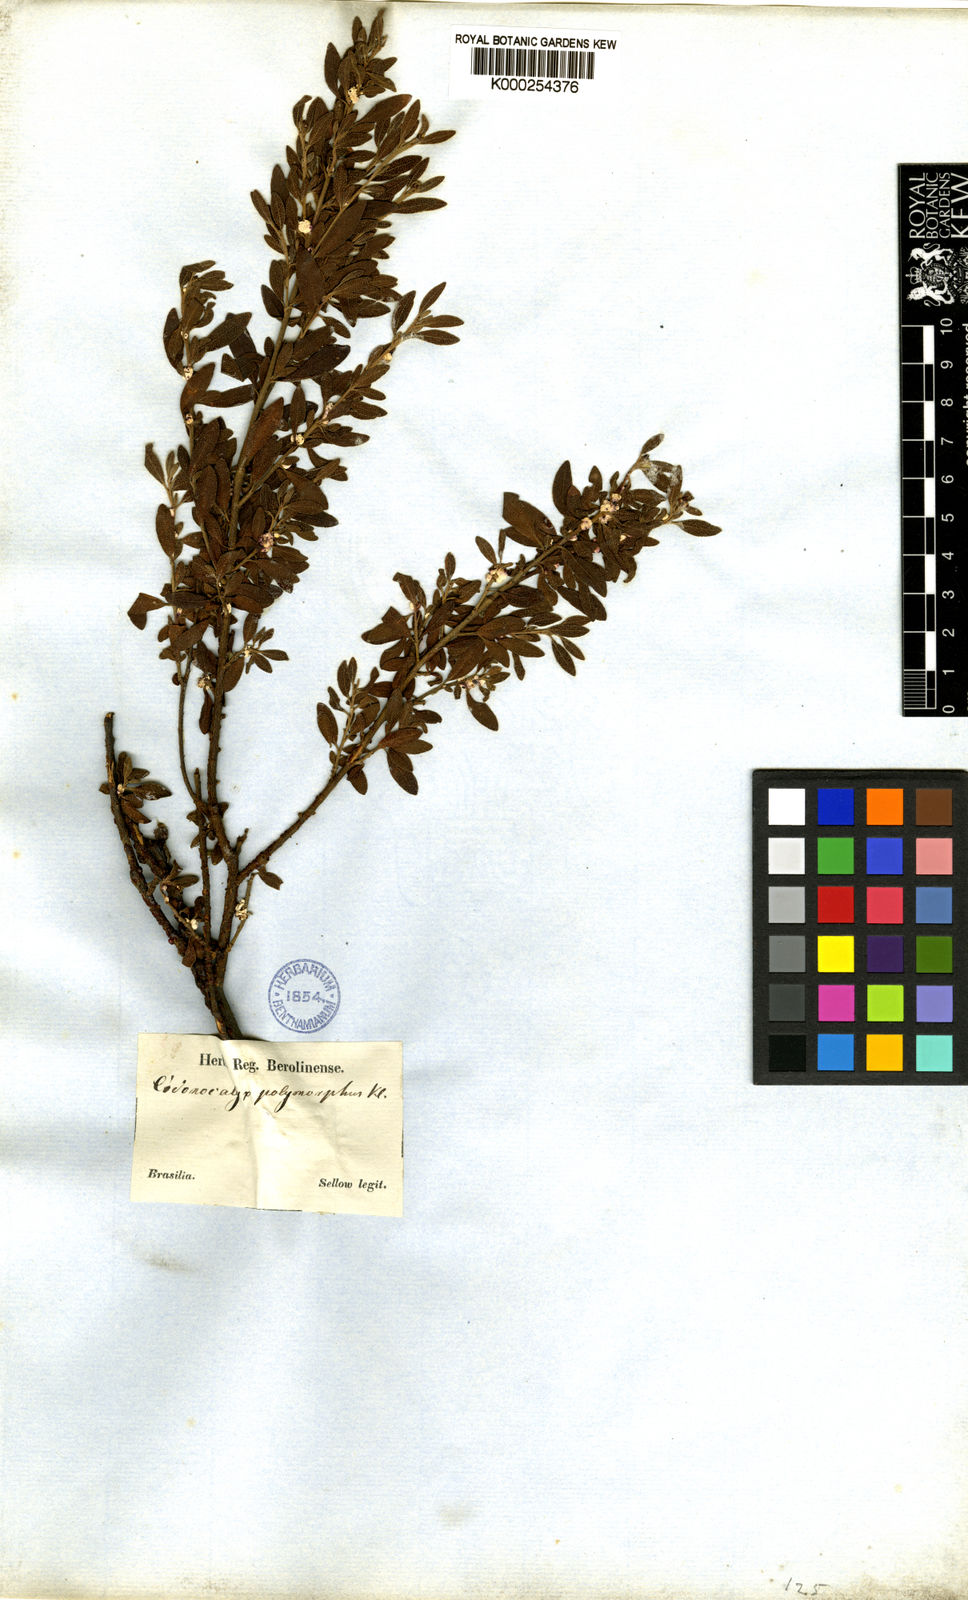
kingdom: Plantae
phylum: Tracheophyta
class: Magnoliopsida
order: Malpighiales
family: Euphorbiaceae
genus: Croton
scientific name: Croton nitrariifolius
